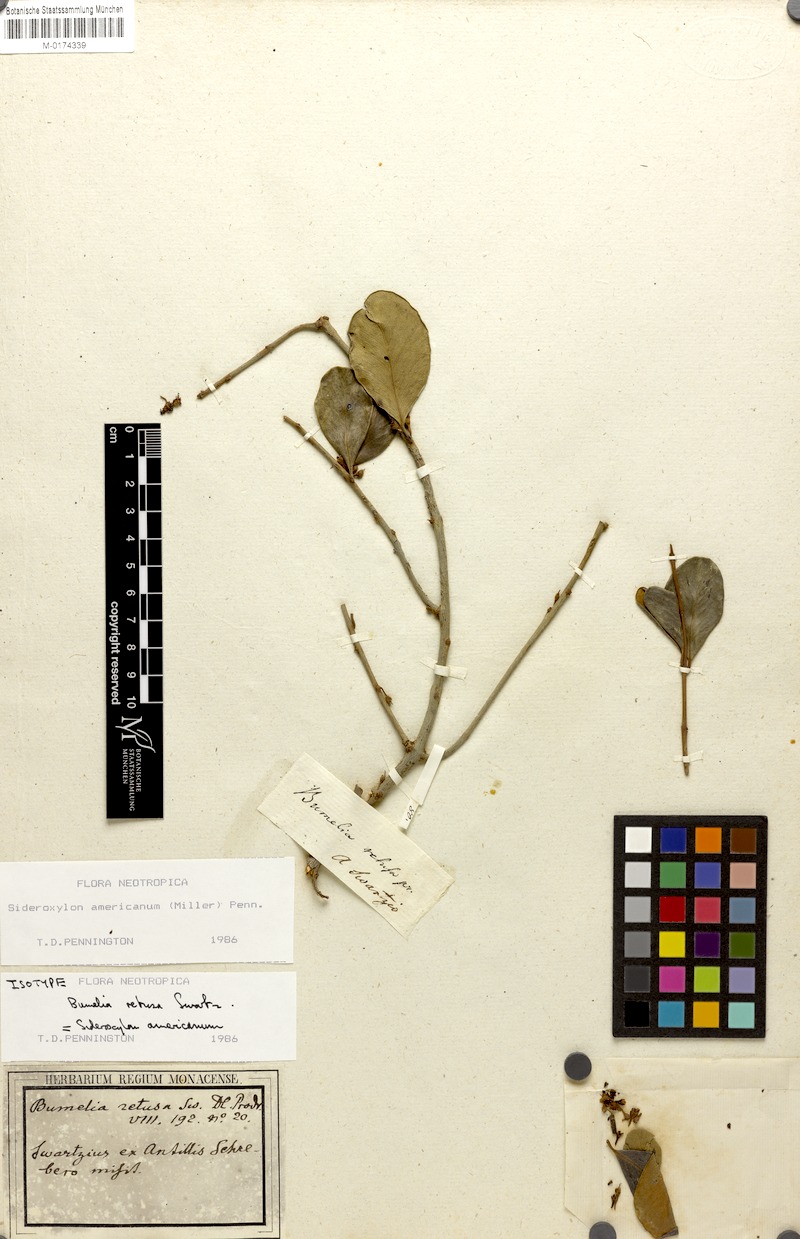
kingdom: Plantae
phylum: Tracheophyta
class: Magnoliopsida
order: Ericales
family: Sapotaceae
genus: Sideroxylon
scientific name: Sideroxylon americanum
